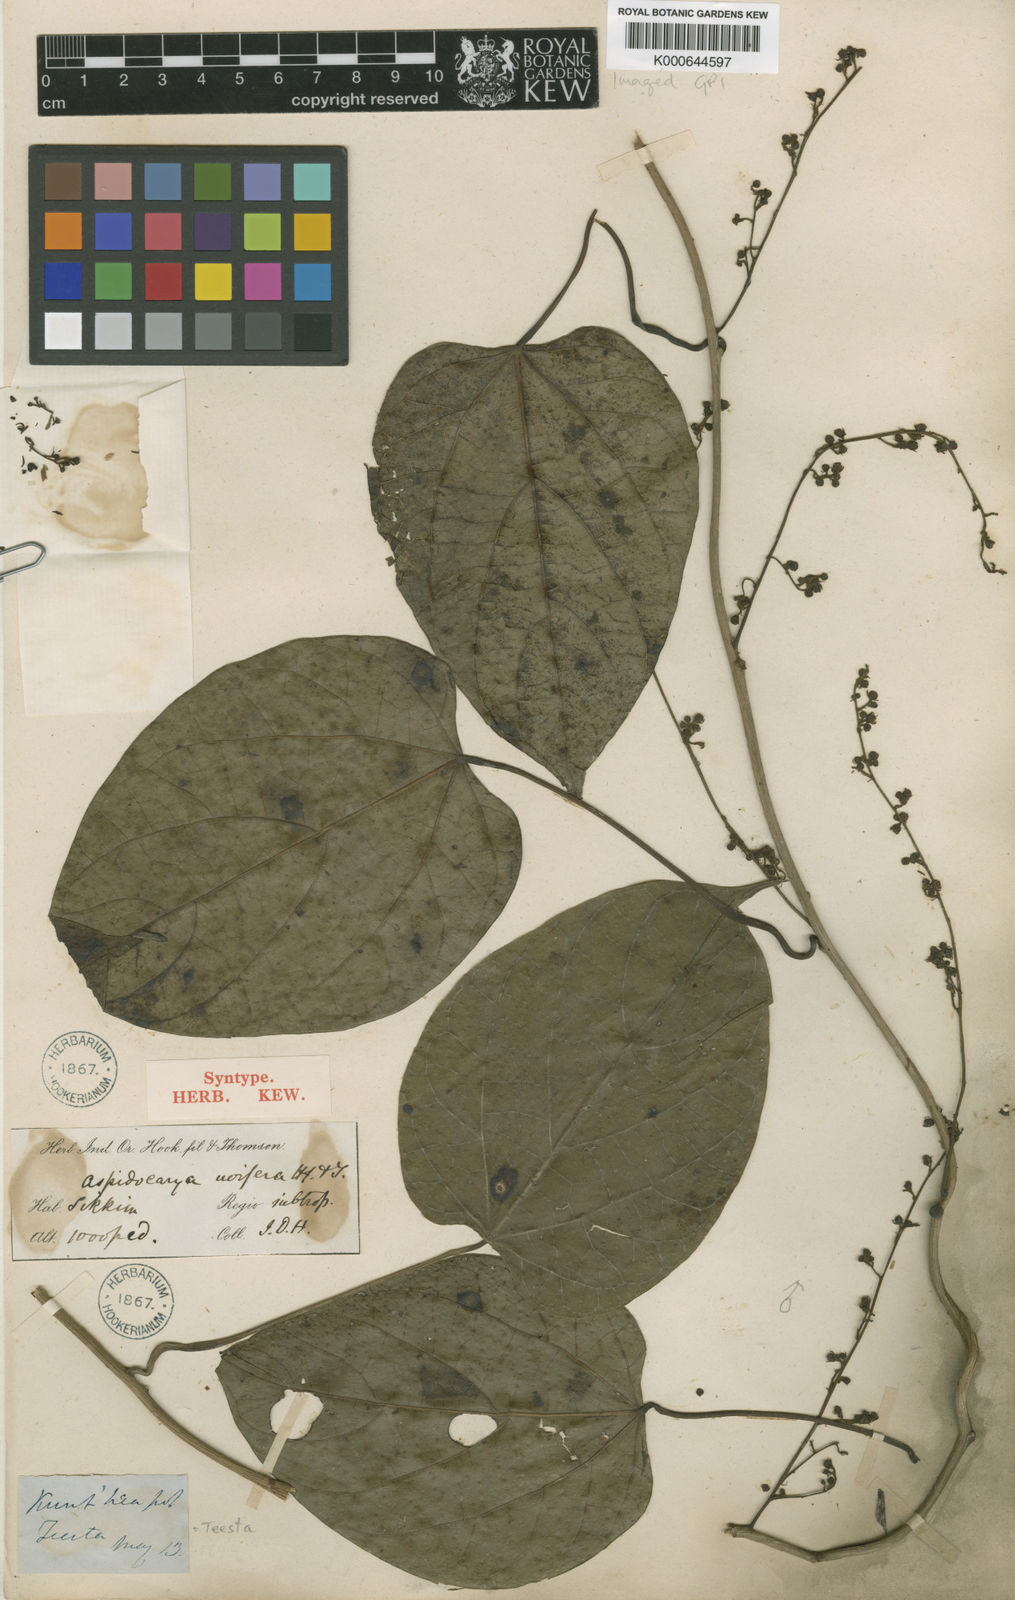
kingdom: Plantae
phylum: Tracheophyta
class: Magnoliopsida
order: Ranunculales
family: Menispermaceae
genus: Aspidocarya
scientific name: Aspidocarya uvifera
